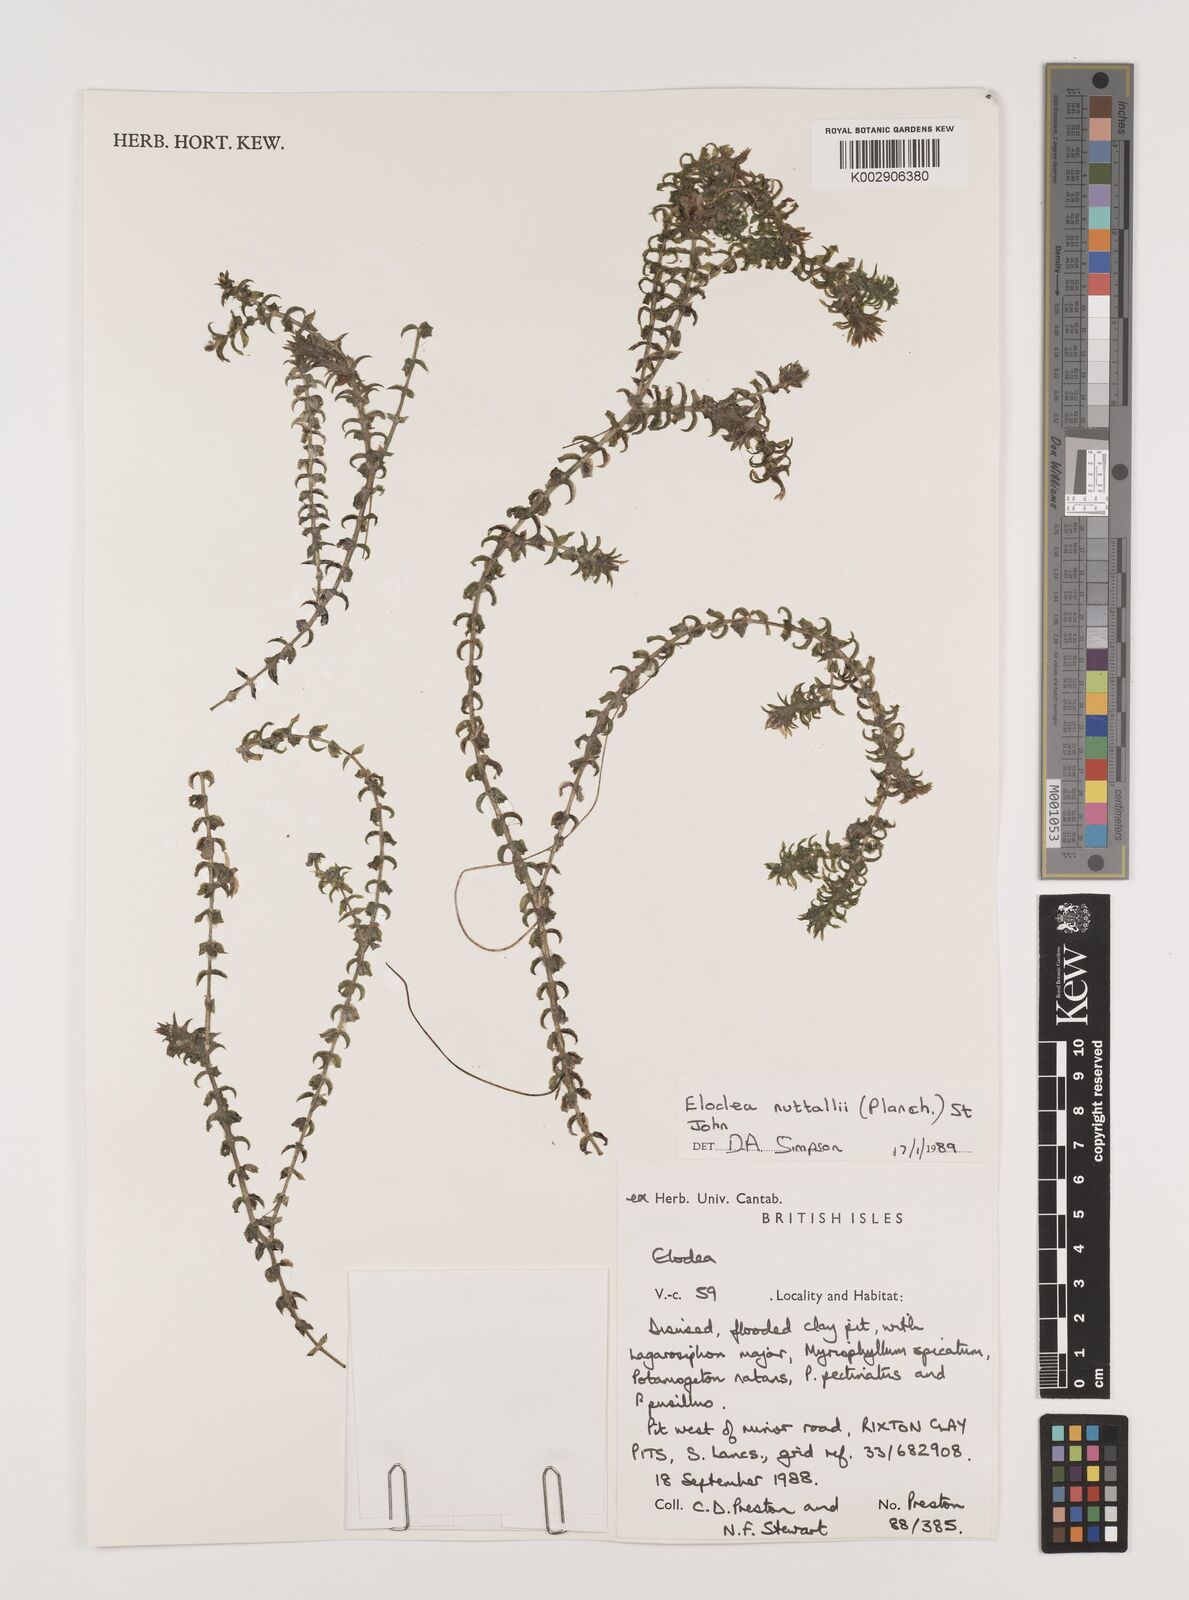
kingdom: Plantae
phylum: Tracheophyta
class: Liliopsida
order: Alismatales
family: Hydrocharitaceae
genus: Elodea
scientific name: Elodea nuttallii
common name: Nuttall's waterweed
